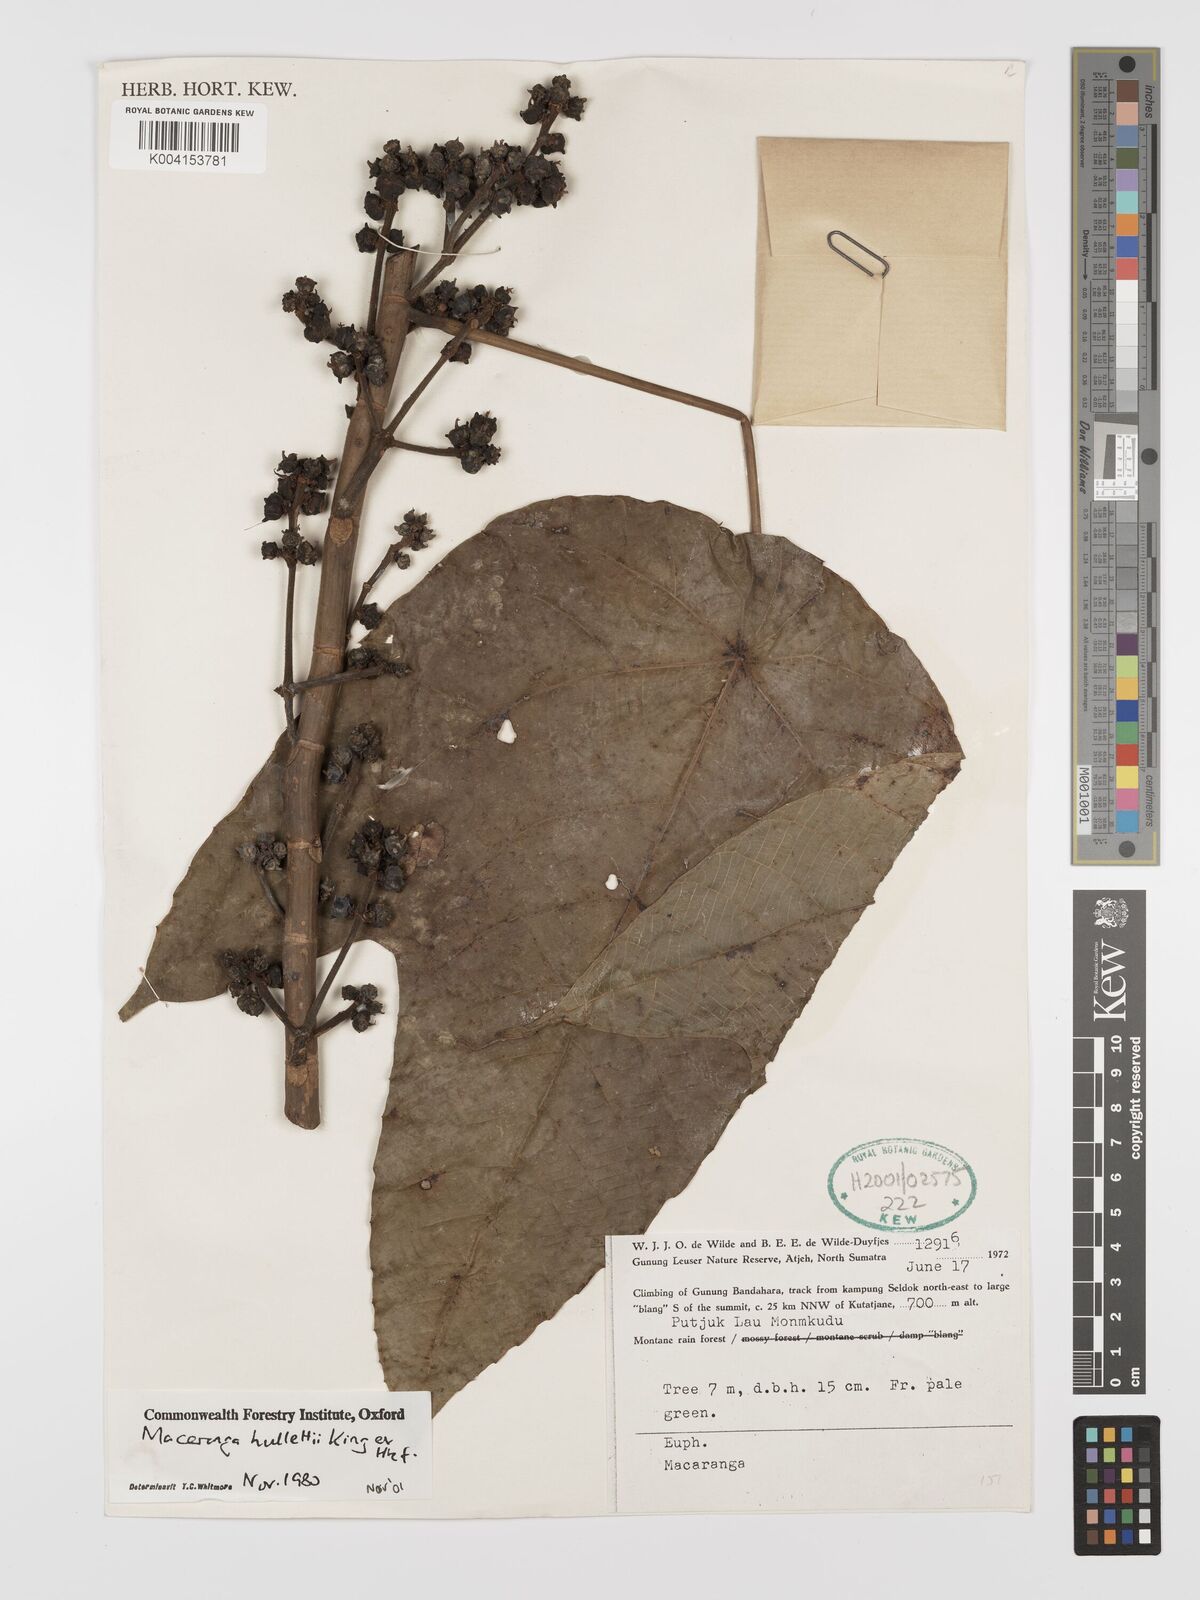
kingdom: Plantae
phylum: Tracheophyta
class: Magnoliopsida
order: Malpighiales
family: Euphorbiaceae
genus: Macaranga
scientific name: Macaranga hullettii
